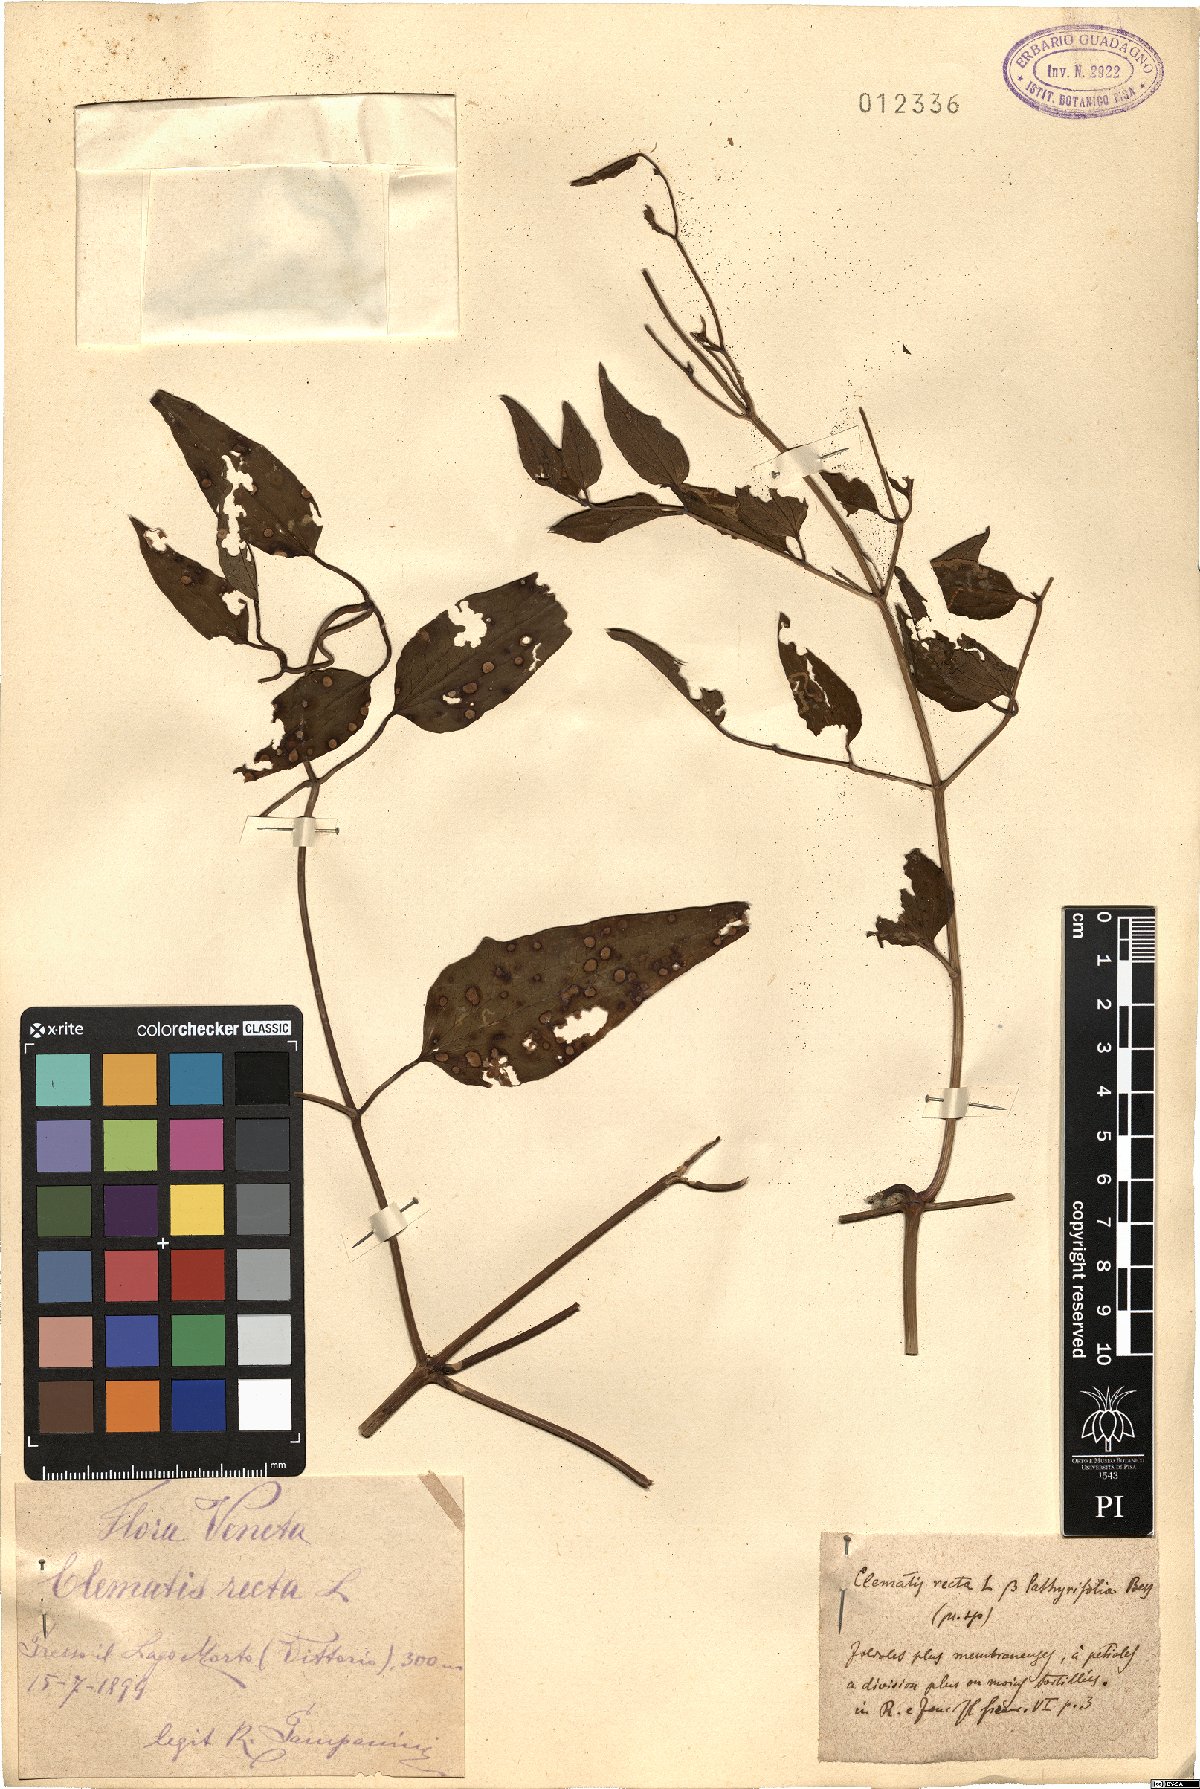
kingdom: Plantae
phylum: Tracheophyta
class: Magnoliopsida
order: Ranunculales
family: Ranunculaceae
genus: Clematis
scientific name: Clematis recta
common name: Ground clematis
